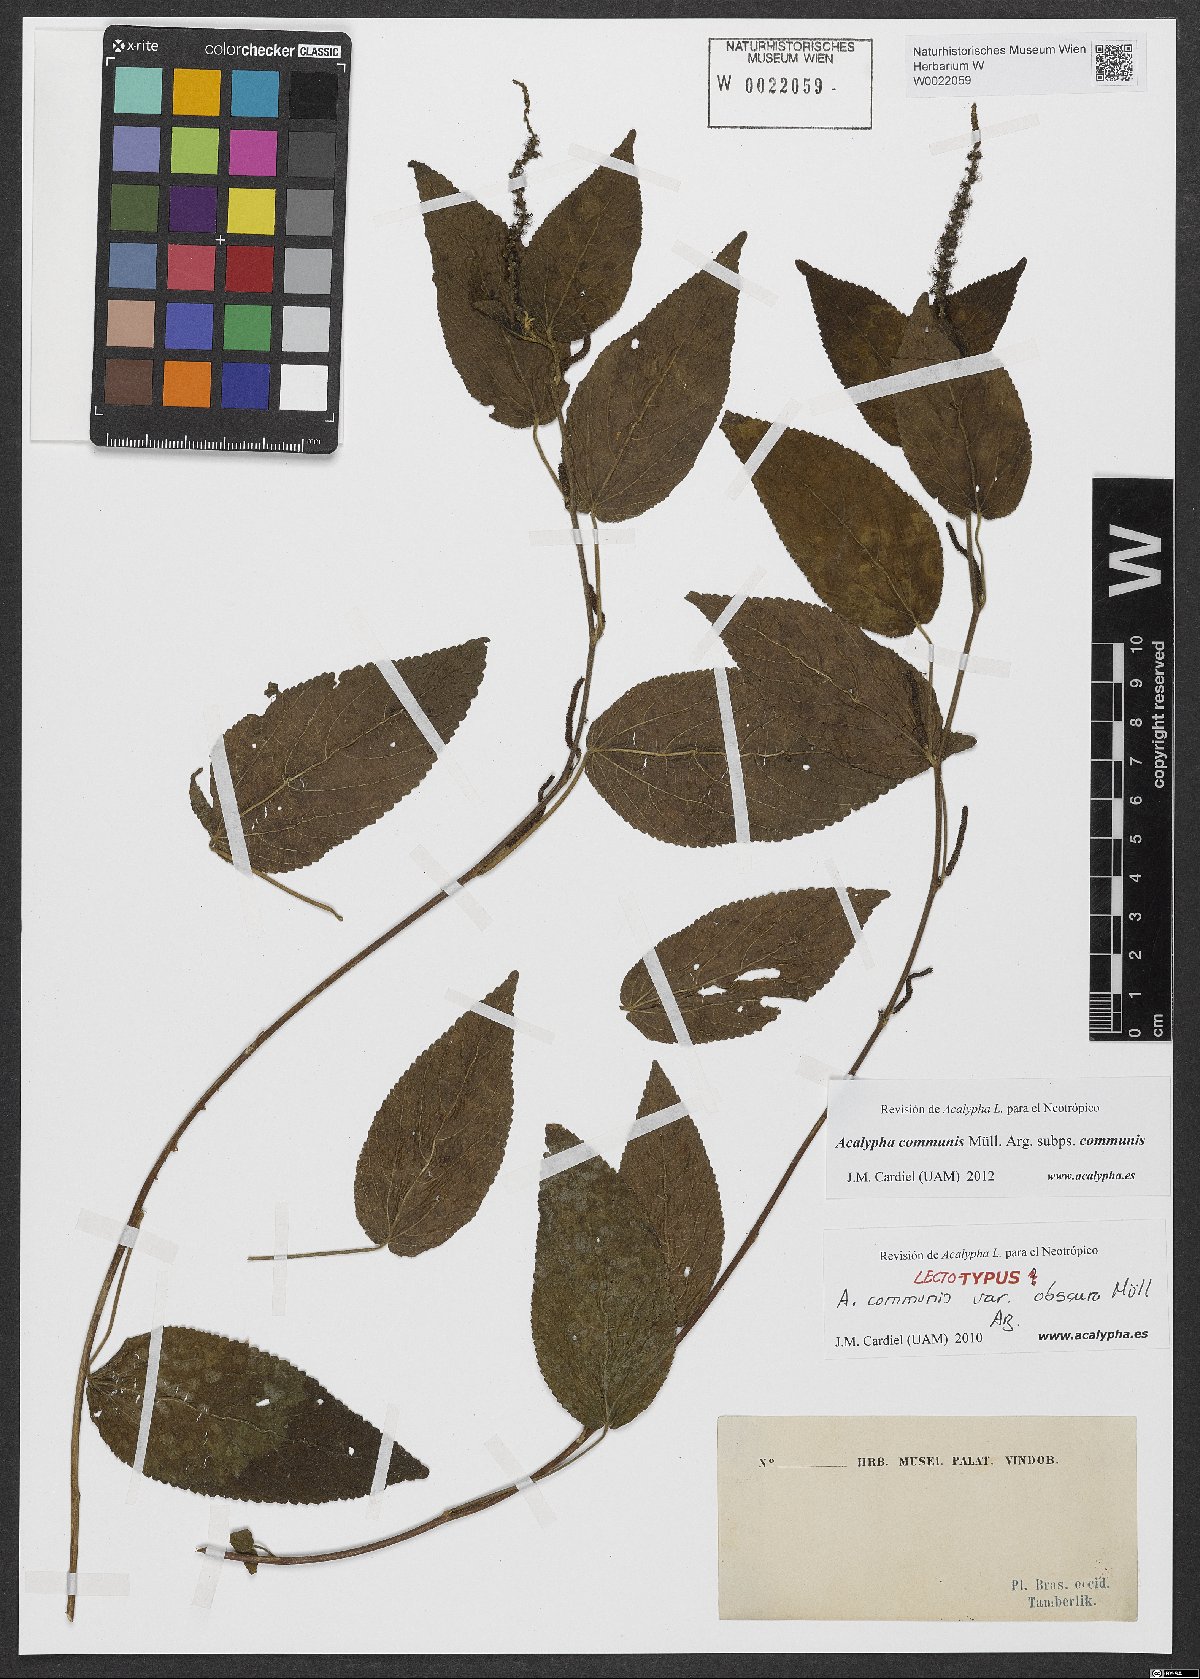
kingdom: Plantae
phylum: Tracheophyta
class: Magnoliopsida
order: Malpighiales
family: Euphorbiaceae
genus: Acalypha
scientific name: Acalypha communis
